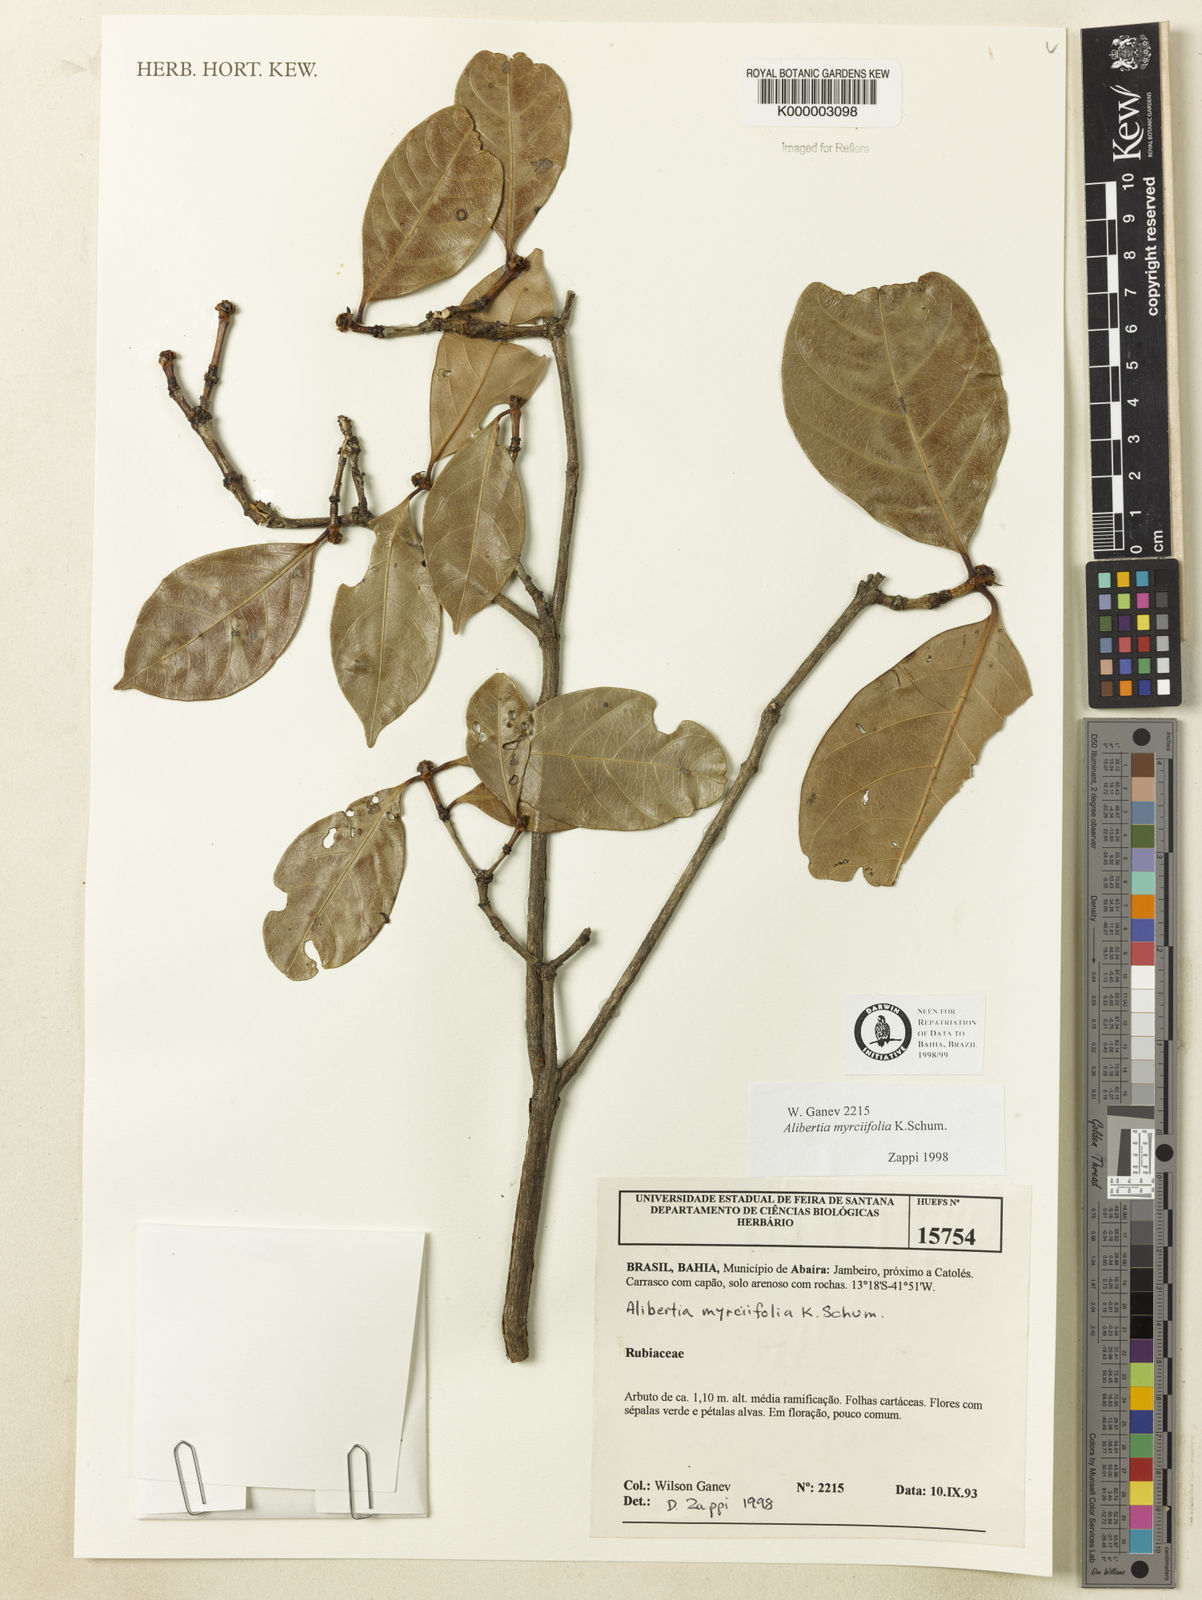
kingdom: Plantae
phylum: Tracheophyta
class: Magnoliopsida
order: Gentianales
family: Rubiaceae
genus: Cordiera
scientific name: Cordiera myrciifolia
